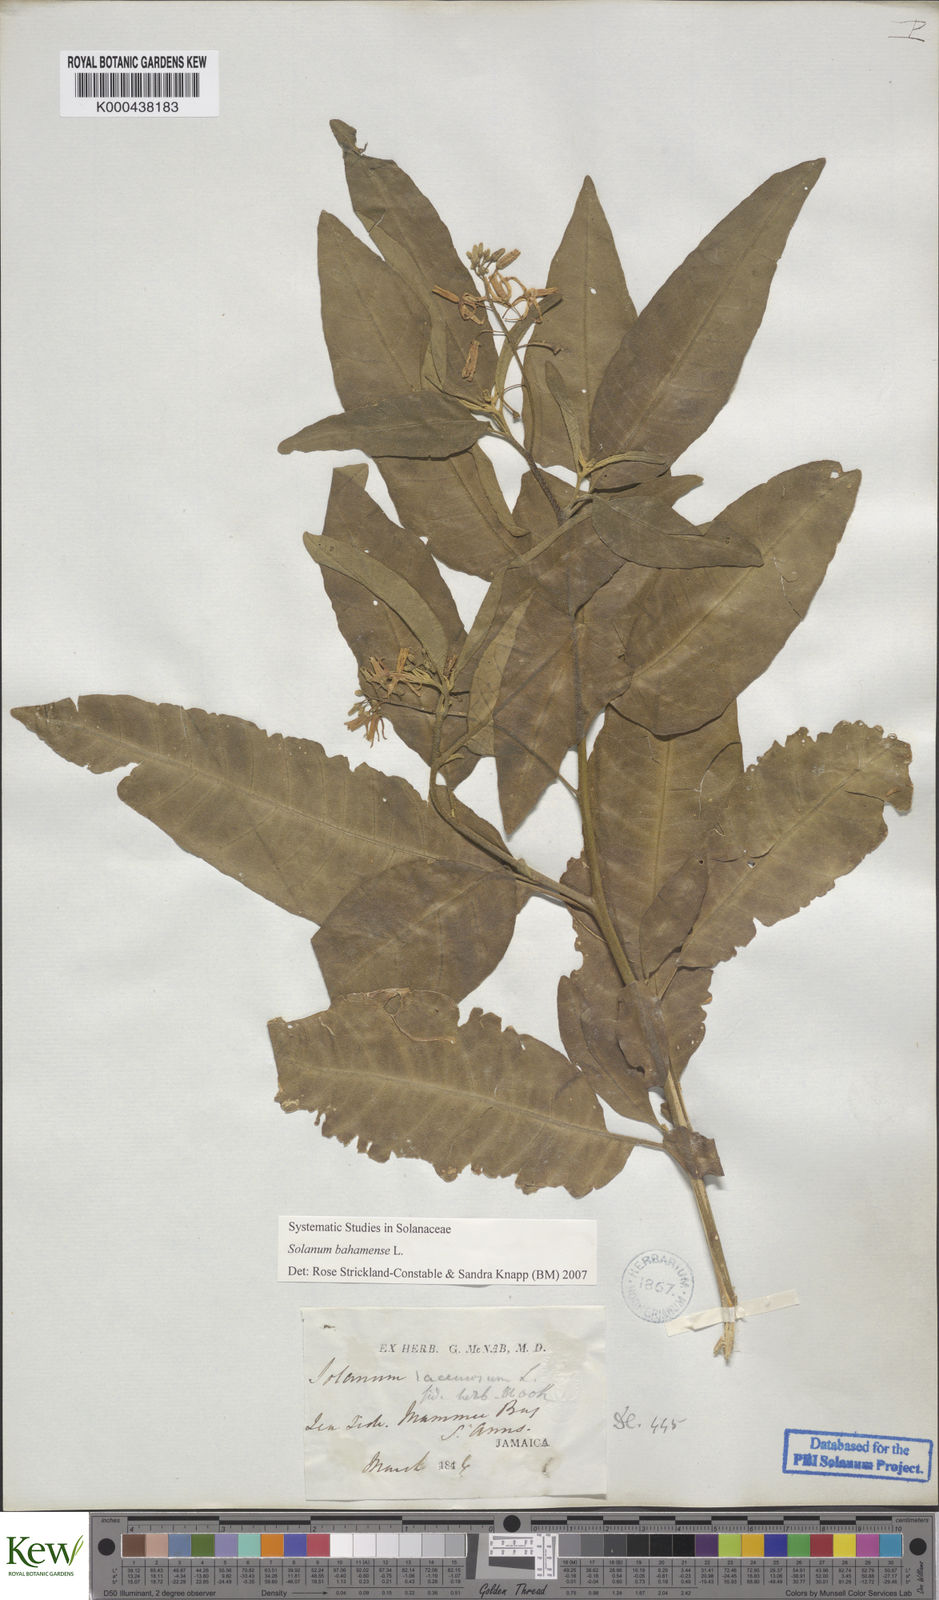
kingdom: Plantae
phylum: Tracheophyta
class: Magnoliopsida
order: Solanales
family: Solanaceae
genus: Solanum
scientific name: Solanum bahamense
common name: Canker-berry
